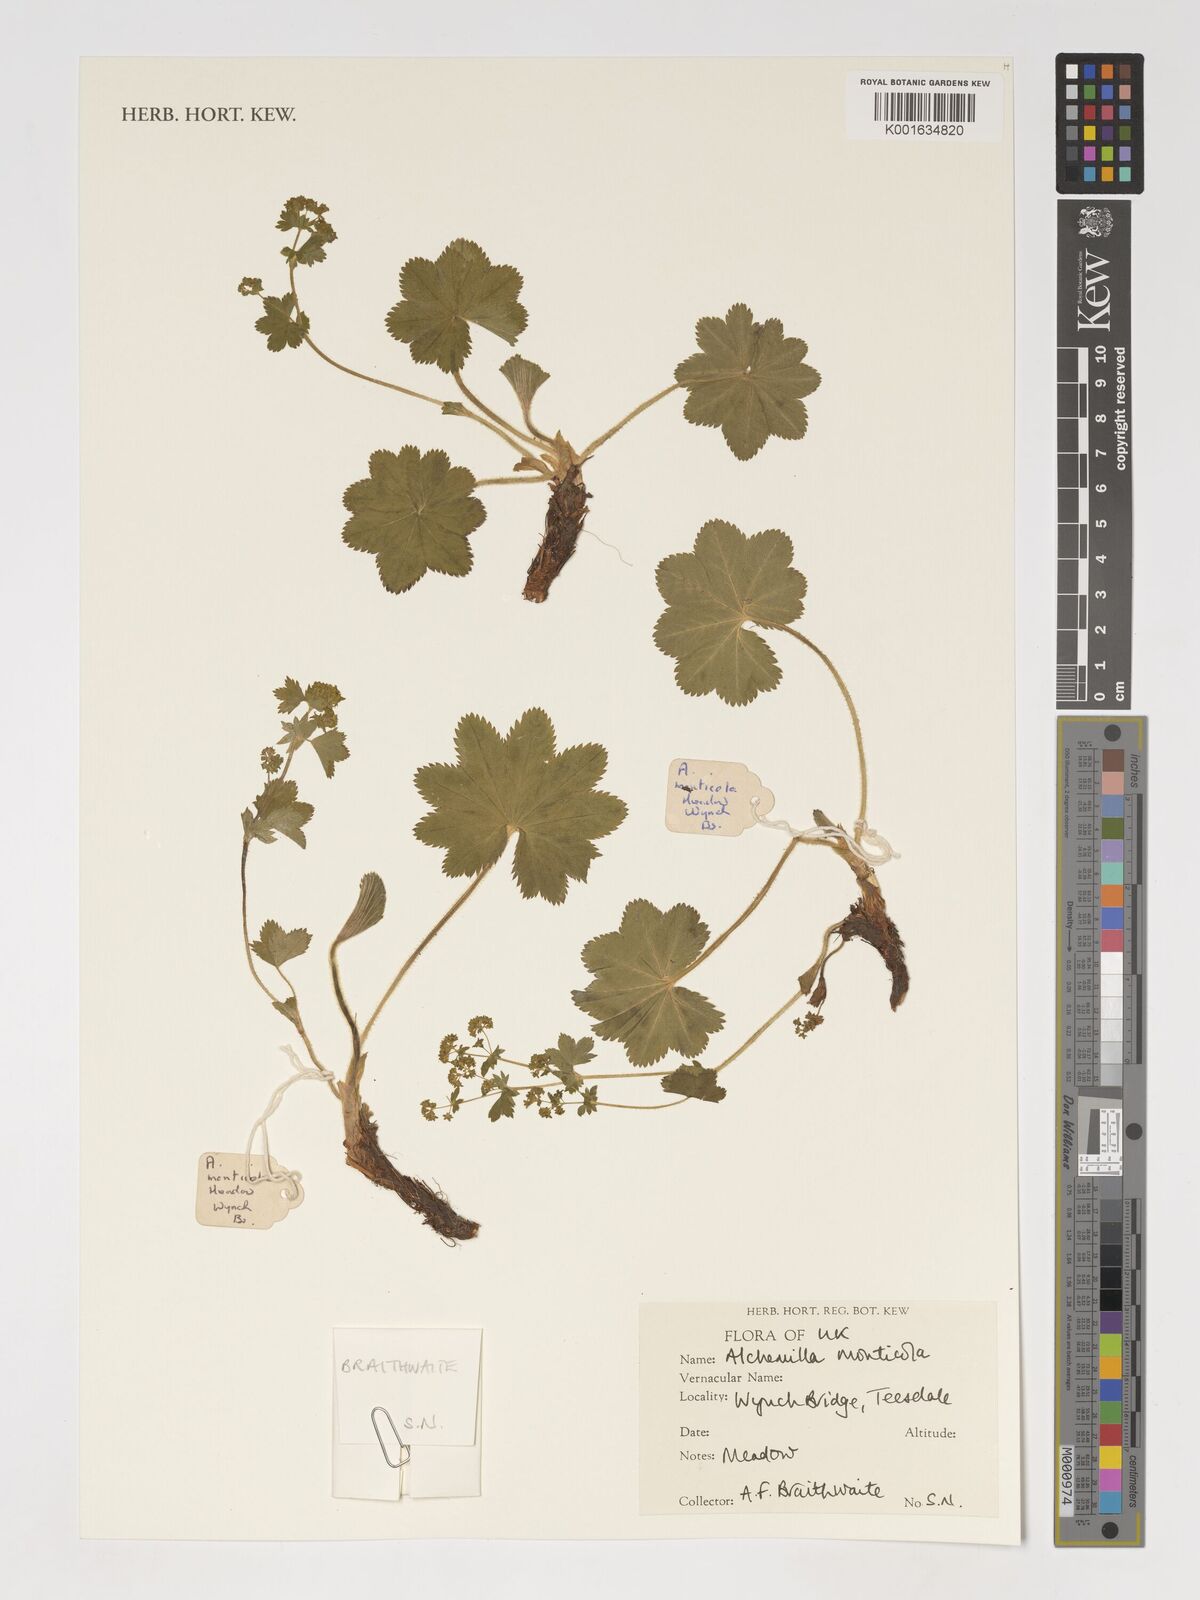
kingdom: Plantae
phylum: Tracheophyta
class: Magnoliopsida
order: Rosales
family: Rosaceae
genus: Alchemilla
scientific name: Alchemilla monticola
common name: Hairy lady's mantle
